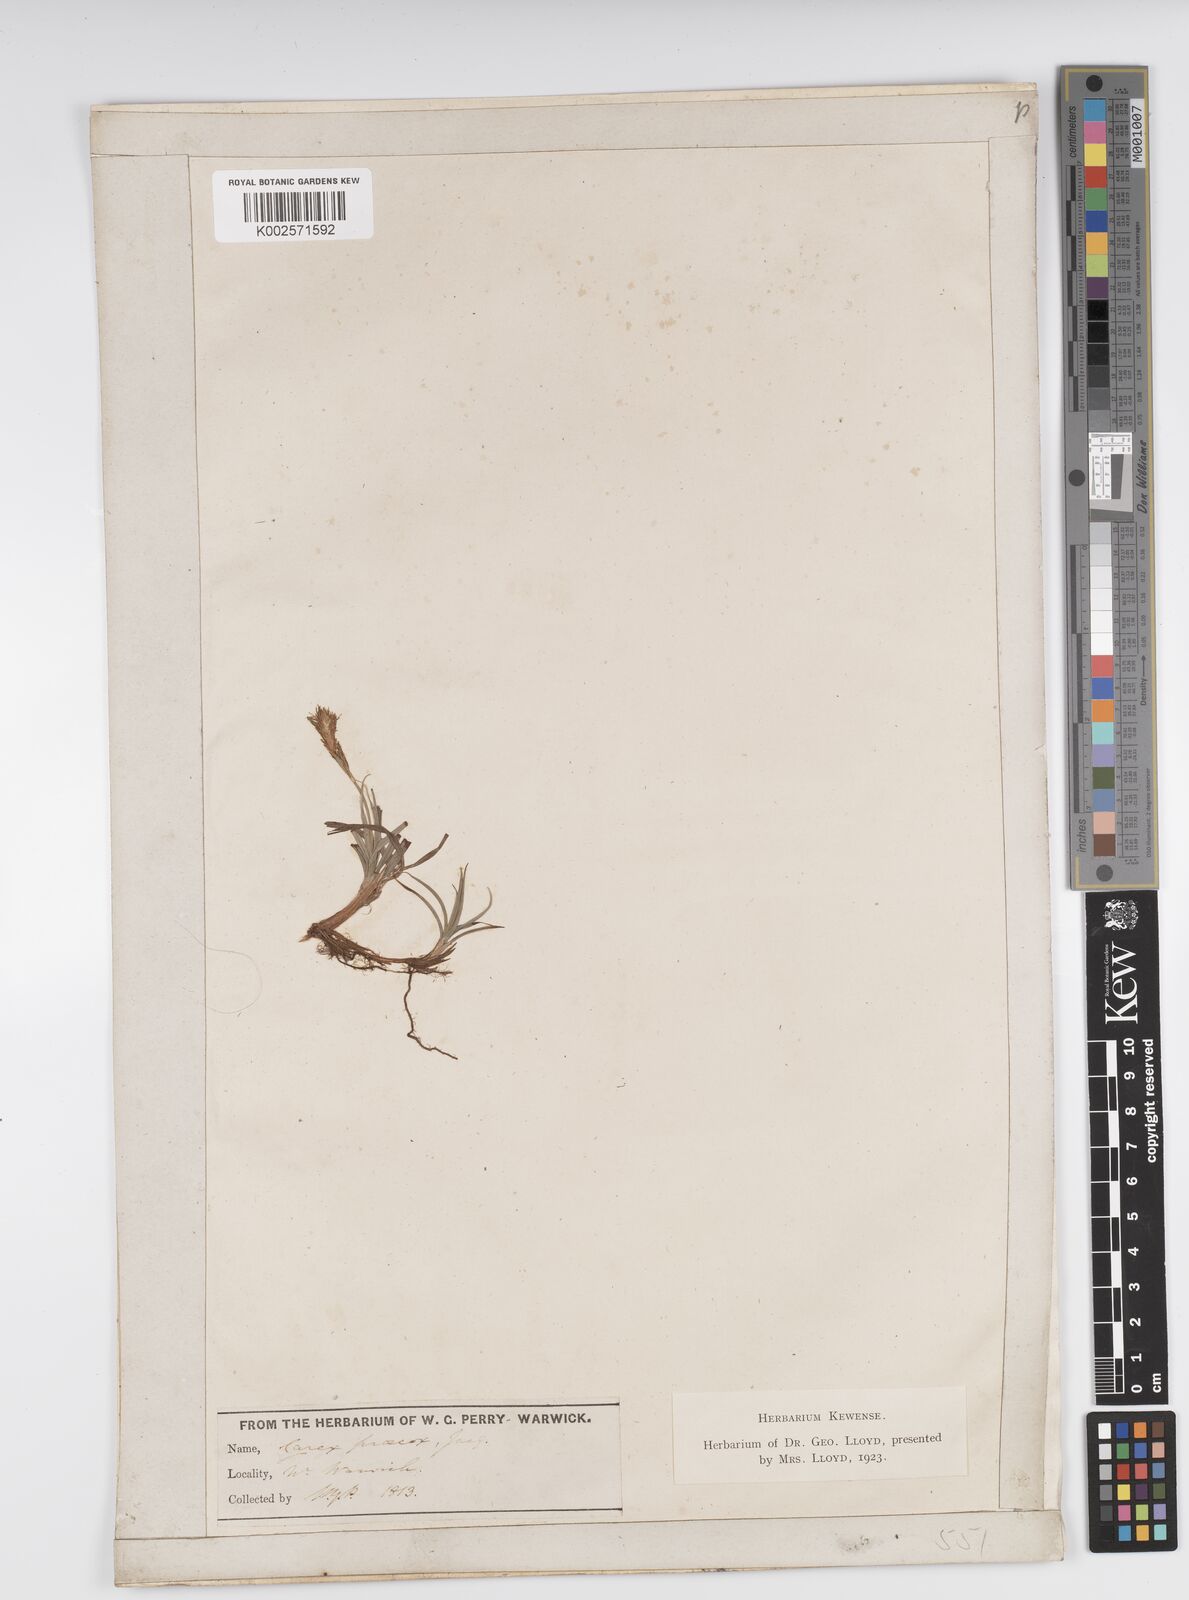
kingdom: Plantae
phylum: Tracheophyta
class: Liliopsida
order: Poales
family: Cyperaceae
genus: Carex
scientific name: Carex caryophyllea
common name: Spring sedge
